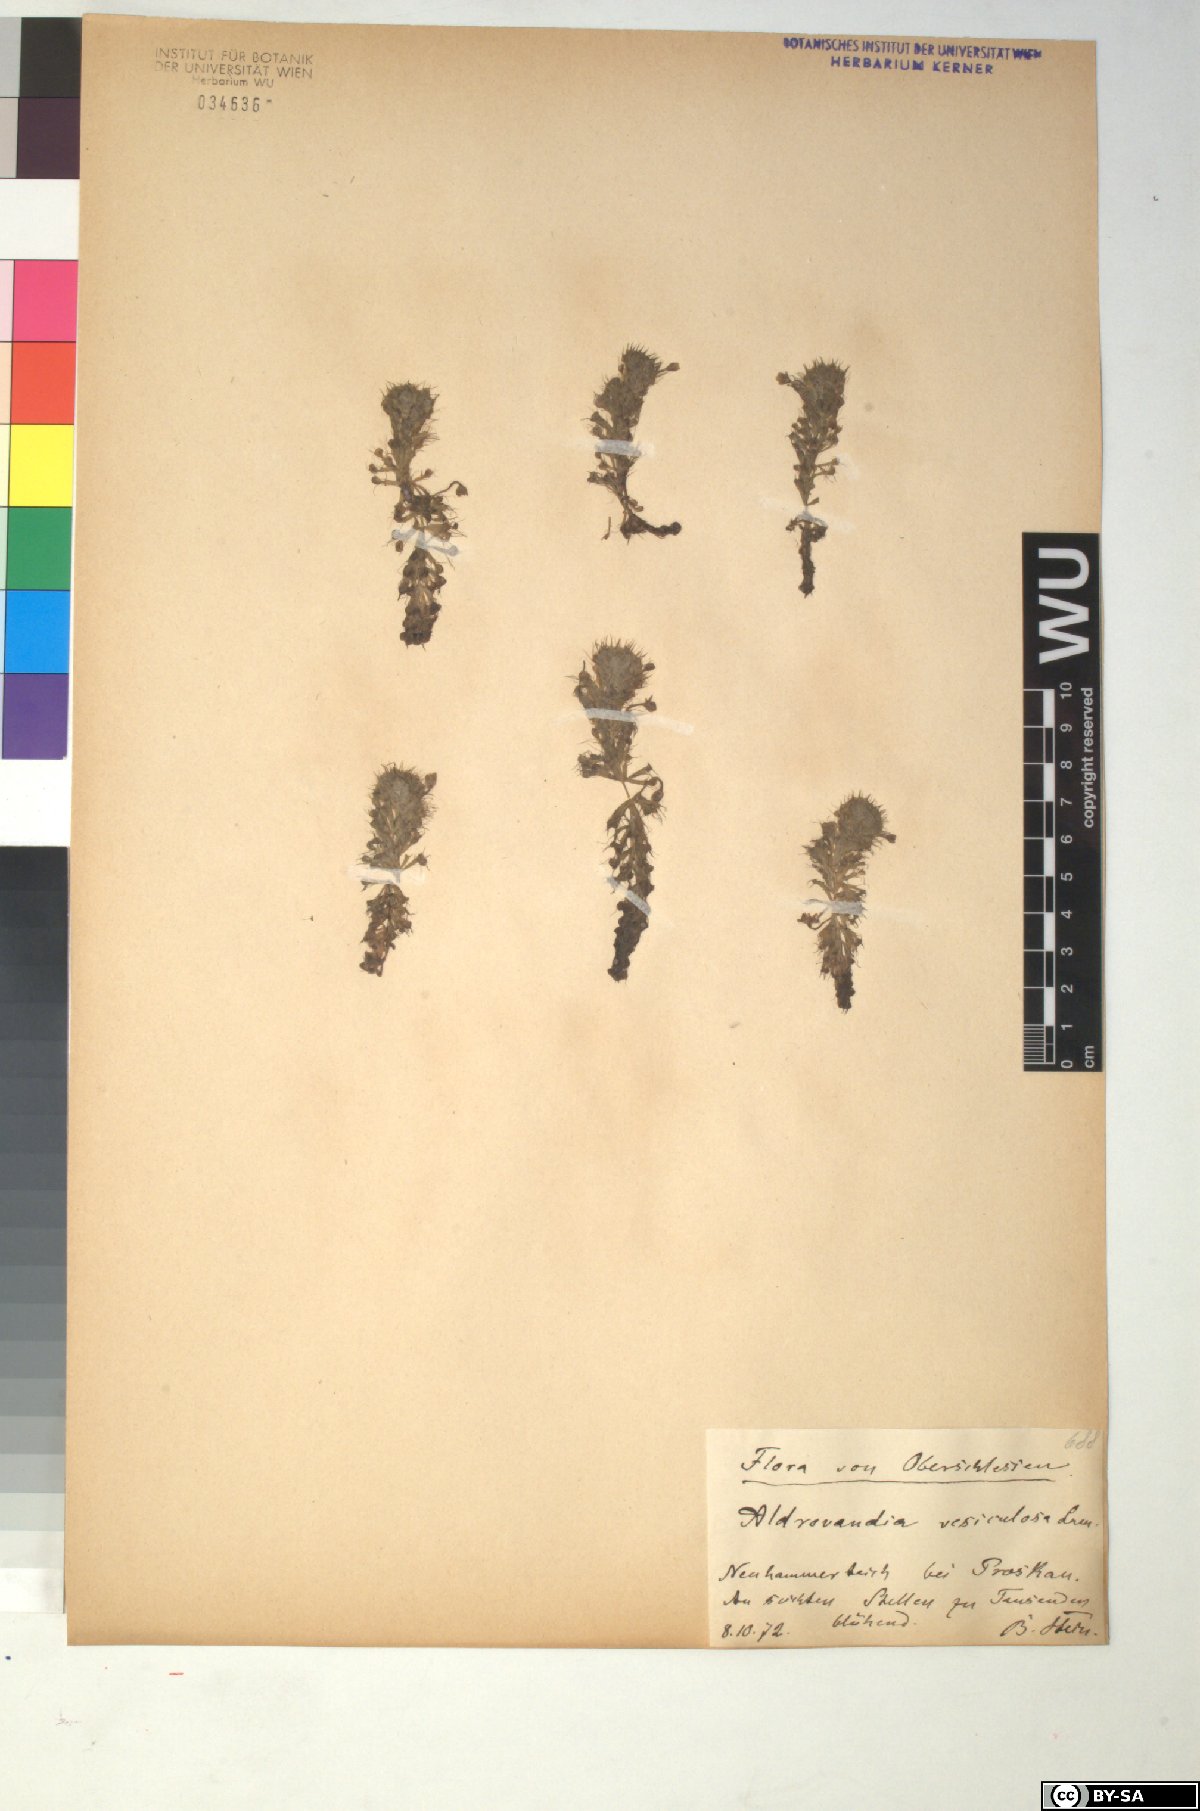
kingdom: Plantae
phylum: Tracheophyta
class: Magnoliopsida
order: Caryophyllales
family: Droseraceae
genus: Aldrovanda
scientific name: Aldrovanda vesiculosa
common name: Waterwheel plant
